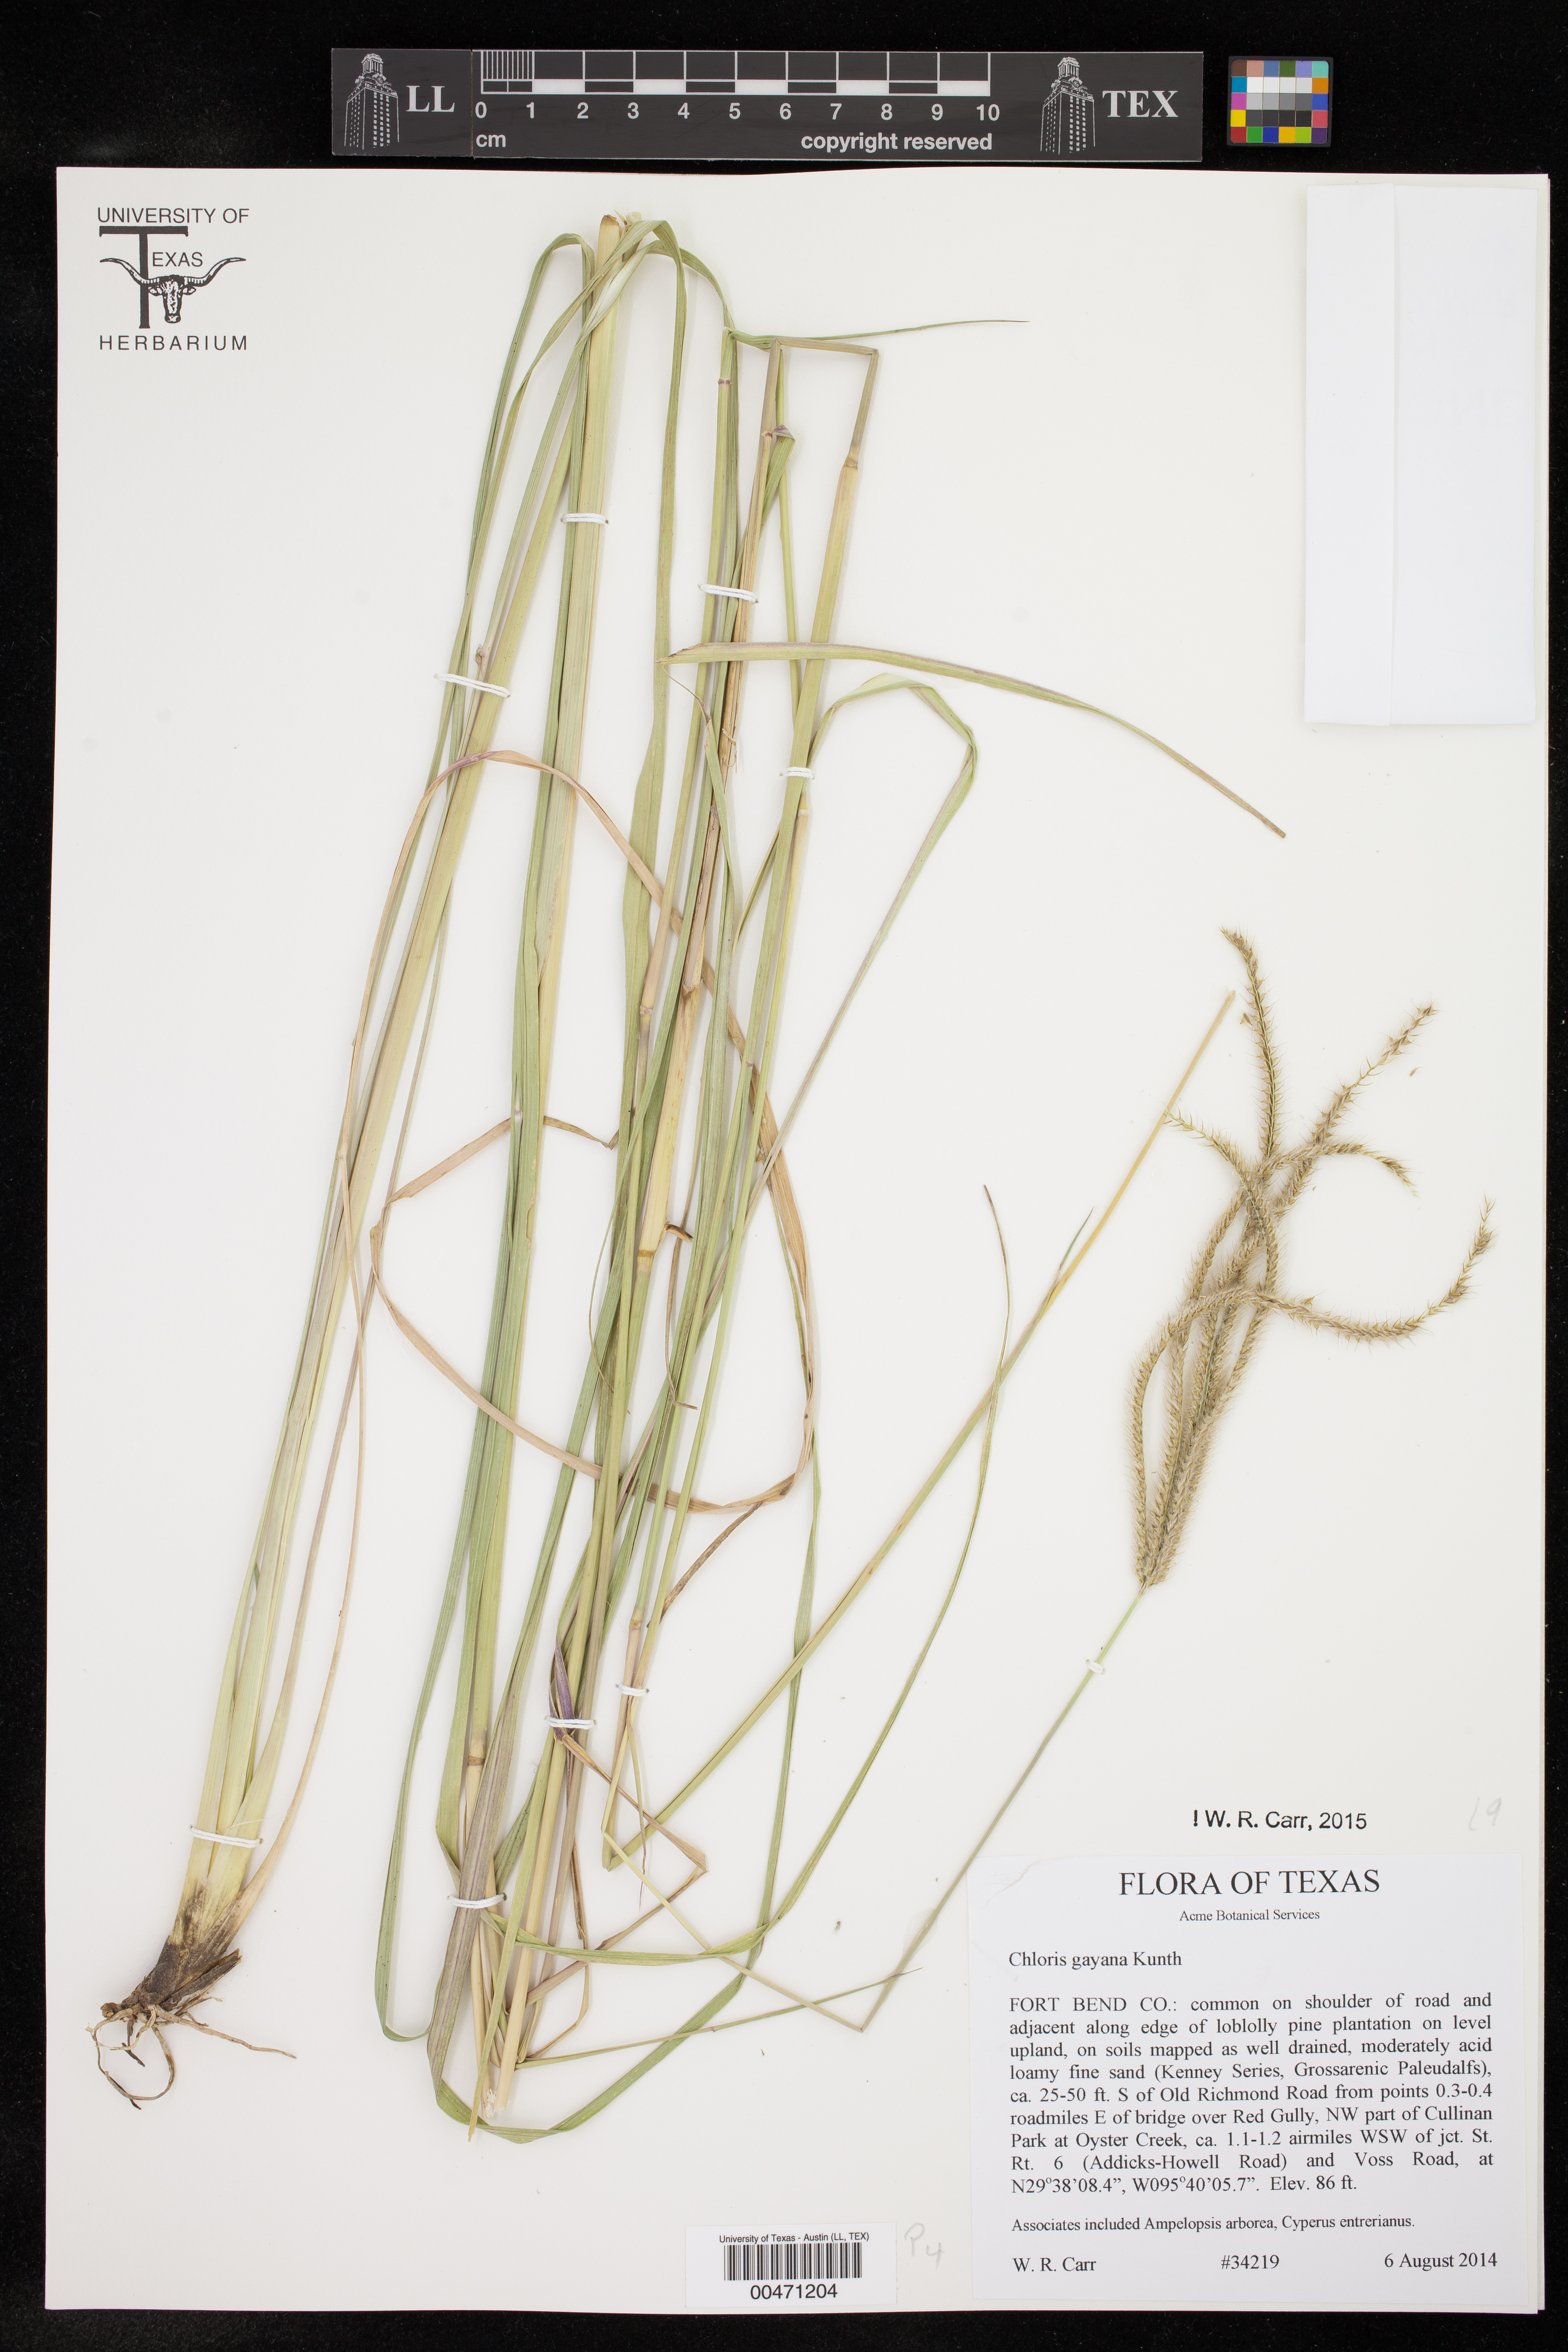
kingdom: Plantae
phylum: Tracheophyta
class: Liliopsida
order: Poales
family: Poaceae
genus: Chloris
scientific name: Chloris gayana
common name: Rhodes grass
